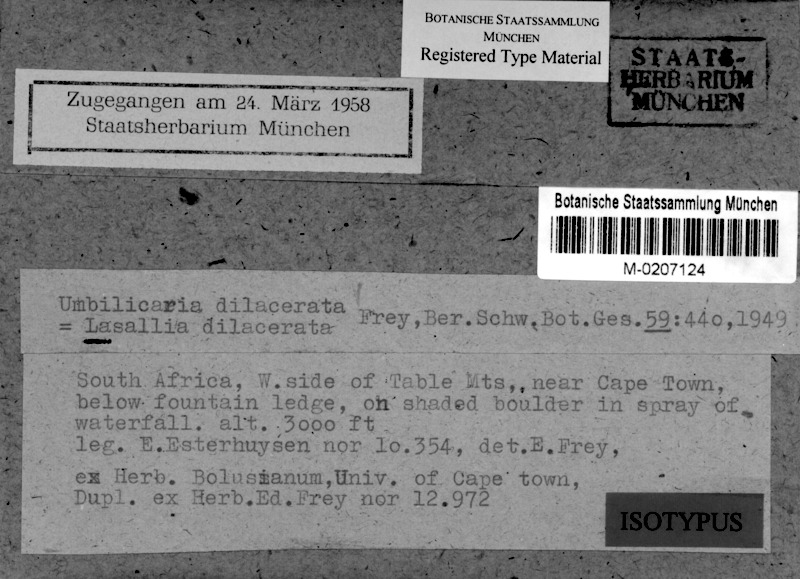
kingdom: Fungi
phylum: Ascomycota
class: Lecanoromycetes
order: Umbilicariales
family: Umbilicariaceae
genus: Lasallia
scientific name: Lasallia
